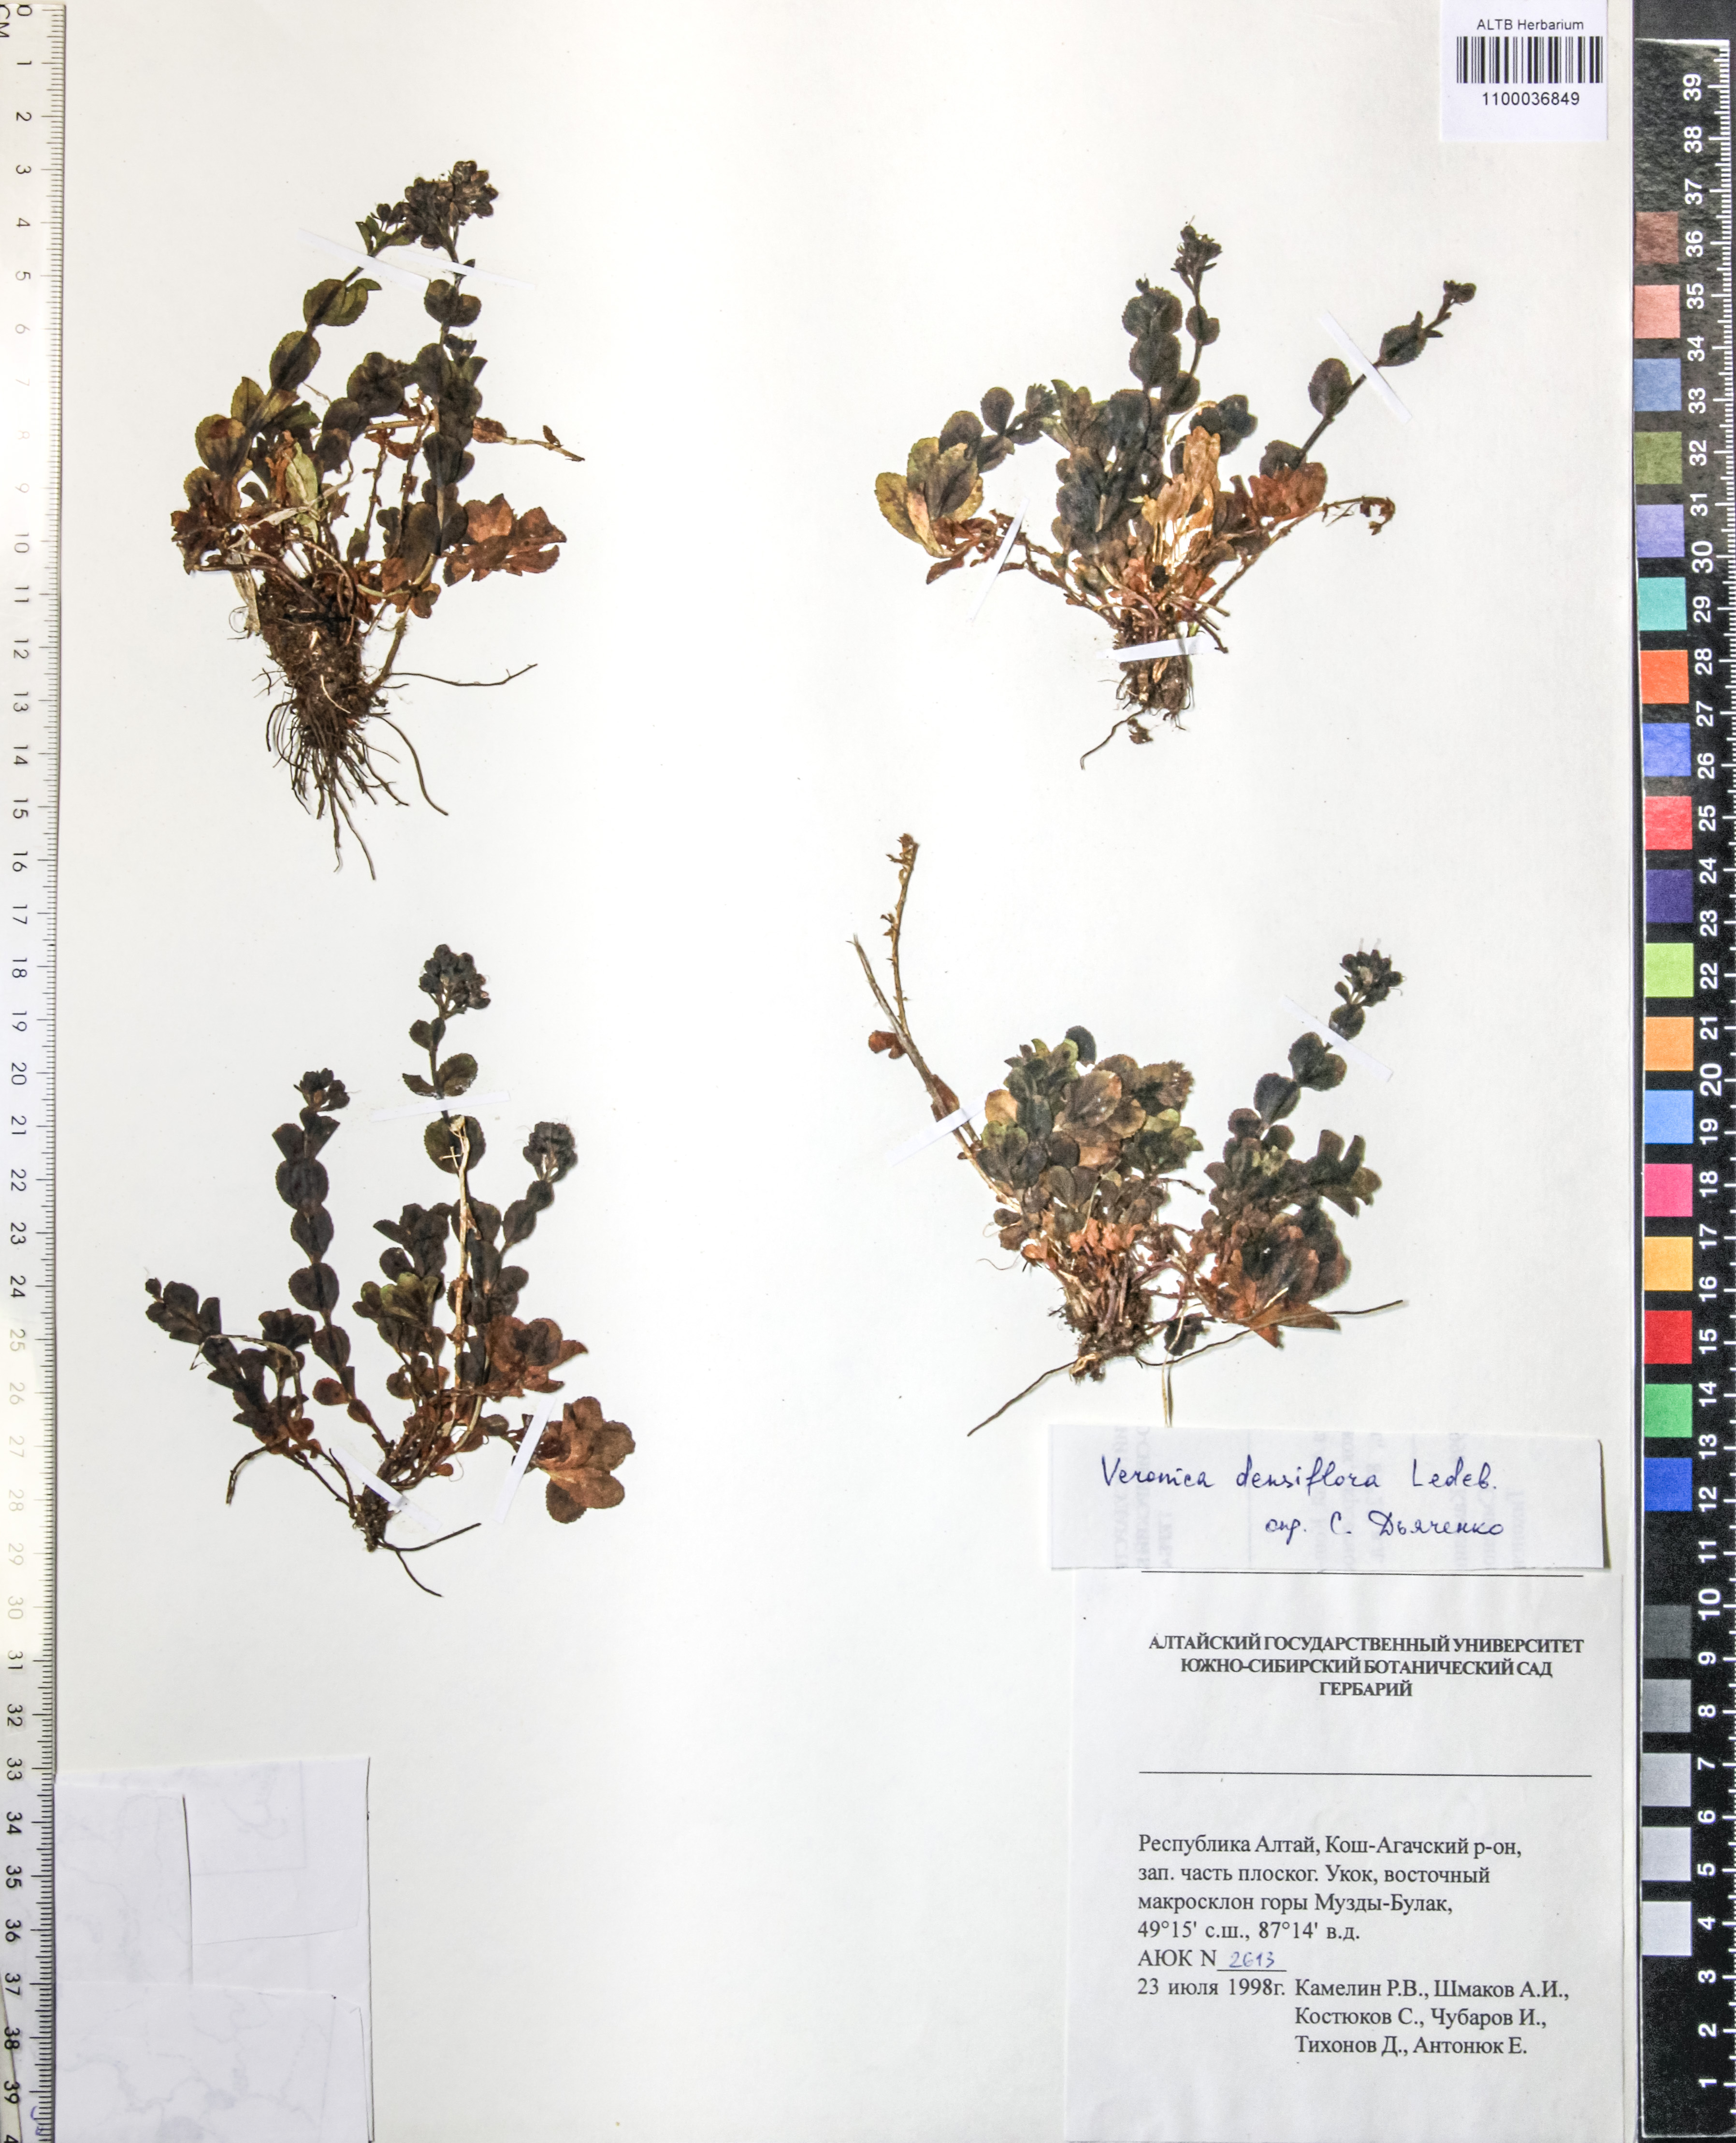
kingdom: Plantae
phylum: Tracheophyta
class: Magnoliopsida
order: Lamiales
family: Plantaginaceae
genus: Veronica
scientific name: Veronica densiflora
